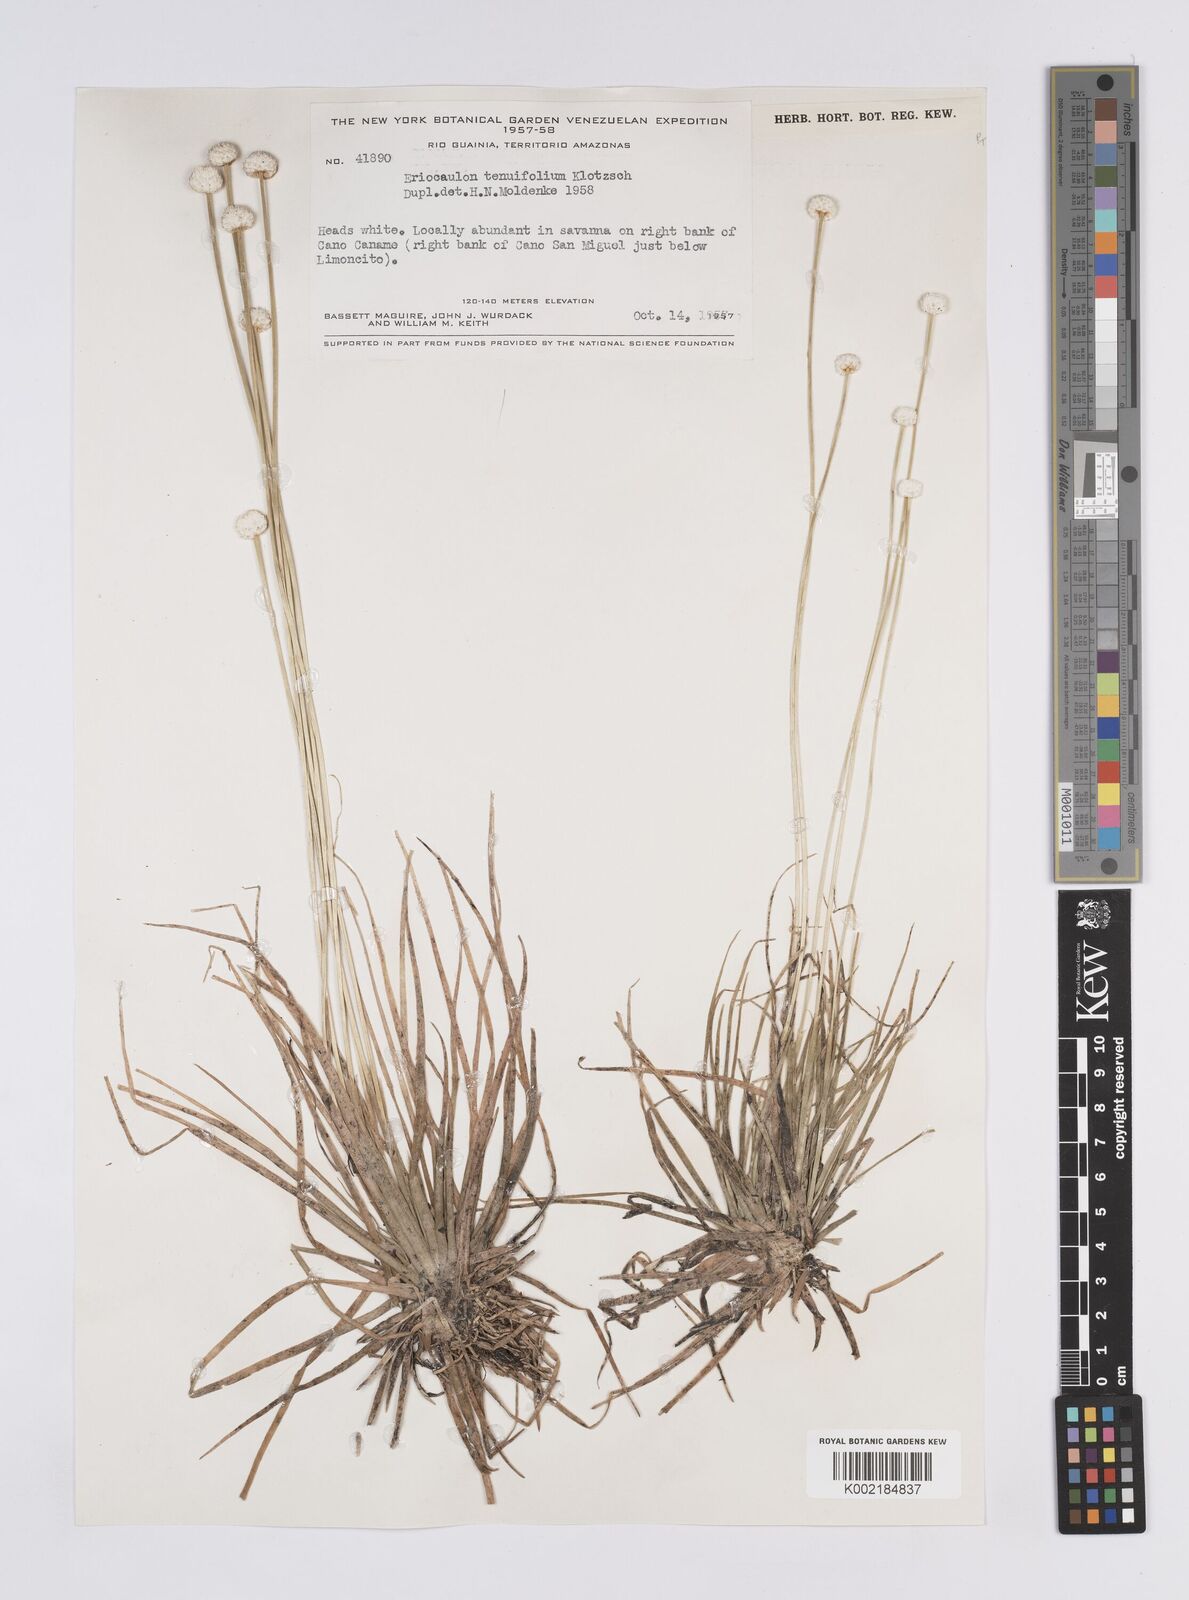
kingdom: Plantae
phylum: Tracheophyta
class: Liliopsida
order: Poales
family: Eriocaulaceae
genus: Eriocaulon
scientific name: Eriocaulon tenuifolium
